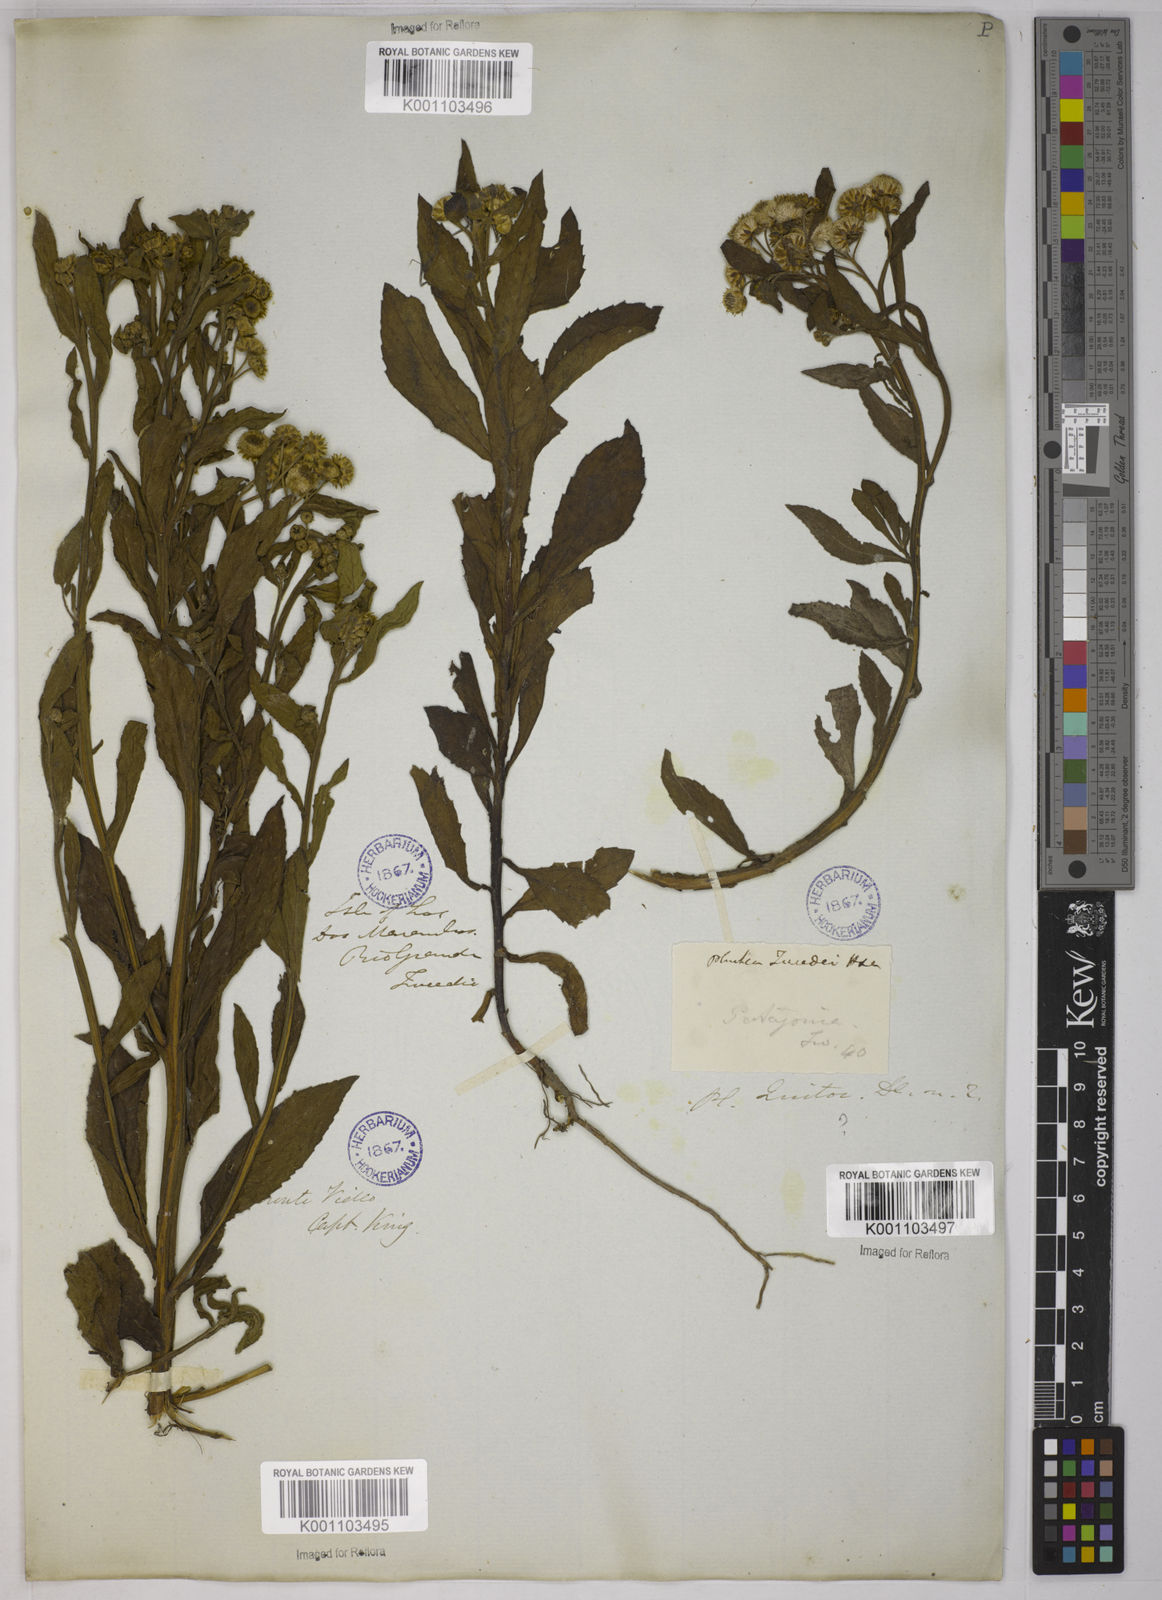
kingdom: Plantae
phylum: Tracheophyta
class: Magnoliopsida
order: Asterales
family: Asteraceae
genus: Pluchea
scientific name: Pluchea sagittalis
